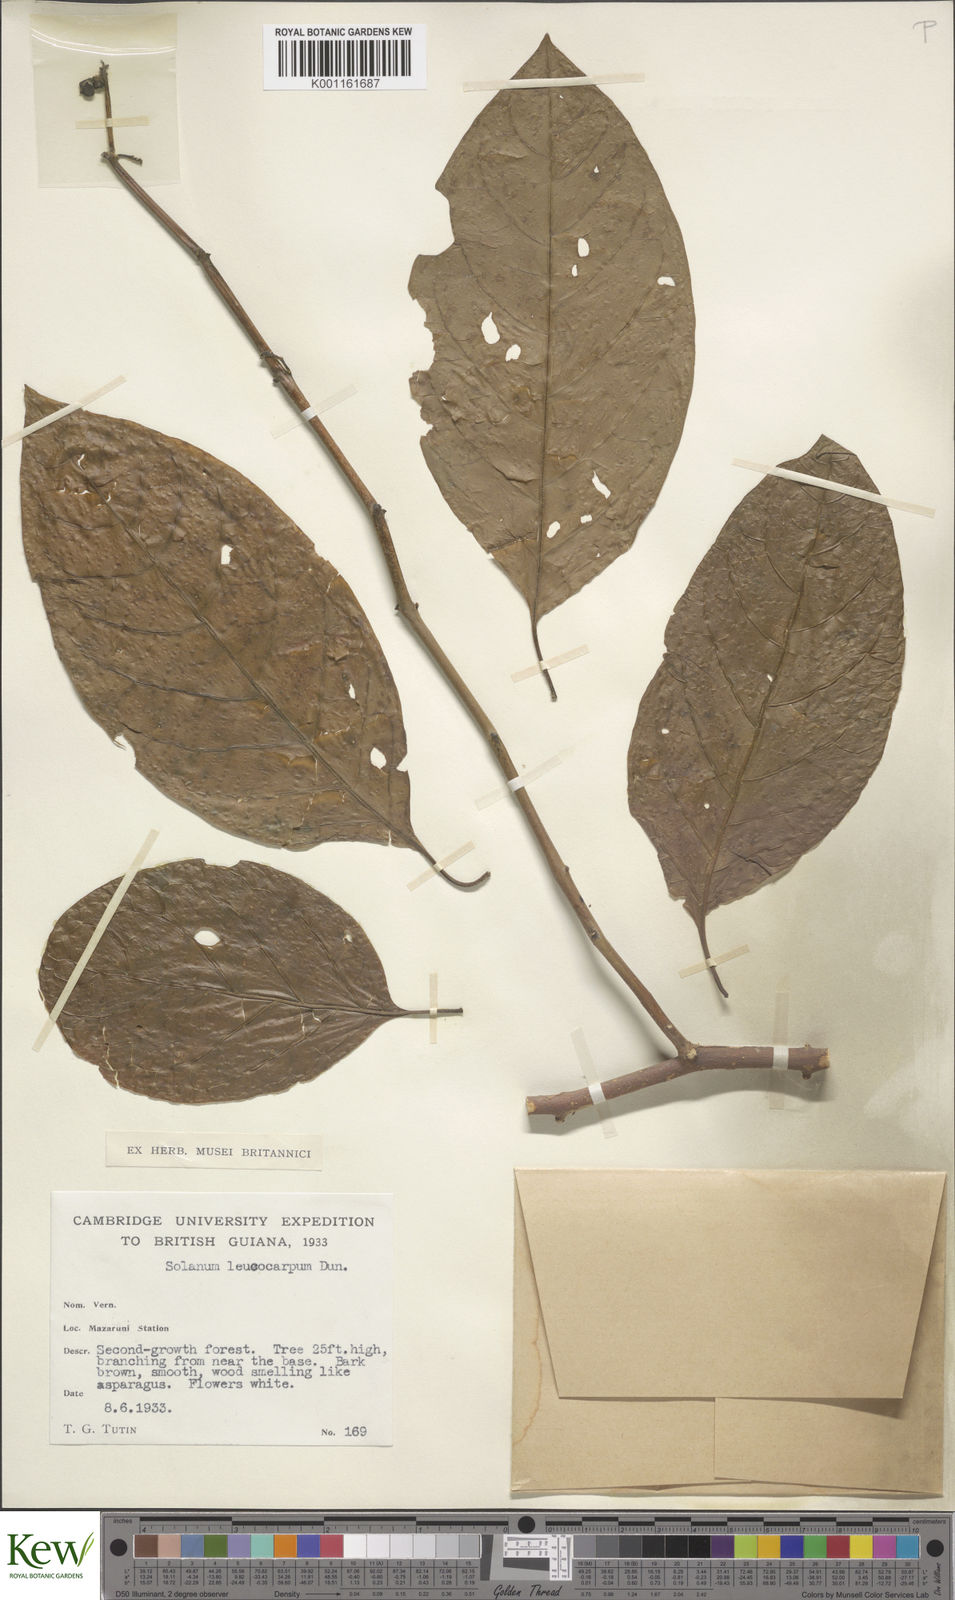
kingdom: Plantae
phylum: Tracheophyta
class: Magnoliopsida
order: Solanales
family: Solanaceae
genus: Solanum
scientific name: Solanum leucocarpon
